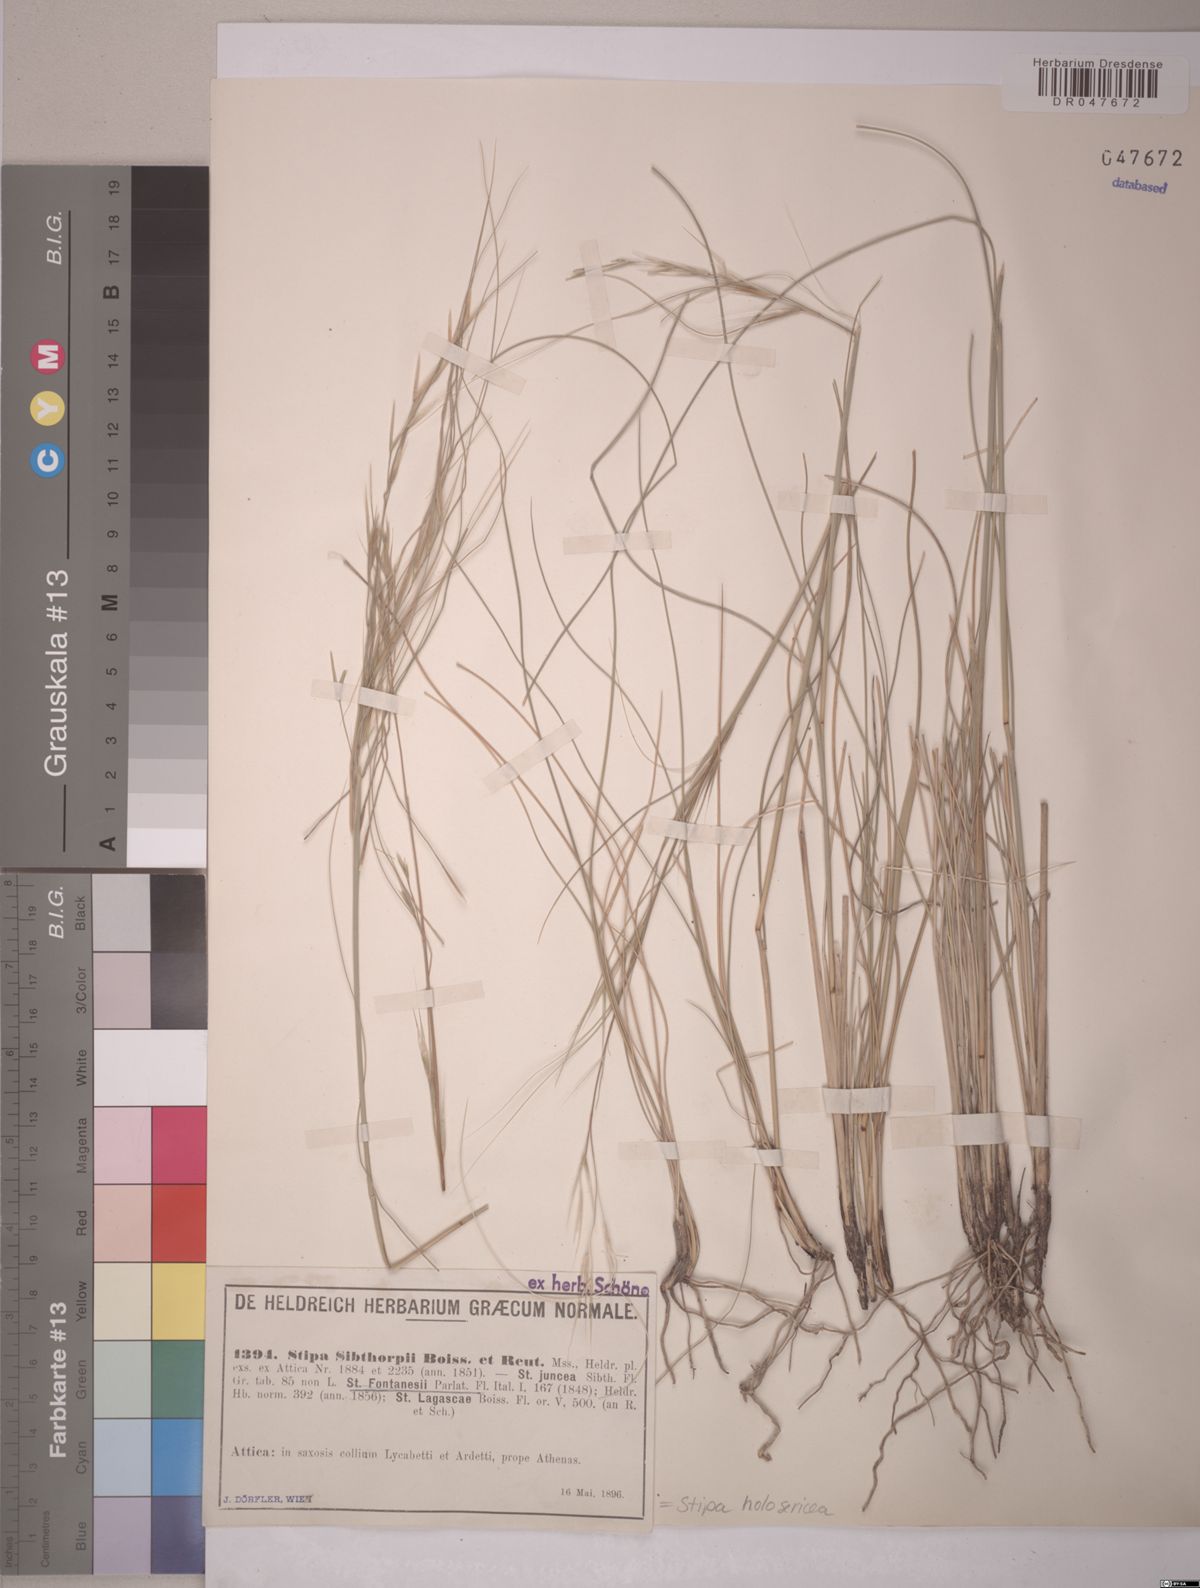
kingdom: Plantae
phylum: Tracheophyta
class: Liliopsida
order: Poales
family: Poaceae
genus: Stipa
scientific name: Stipa holosericea
